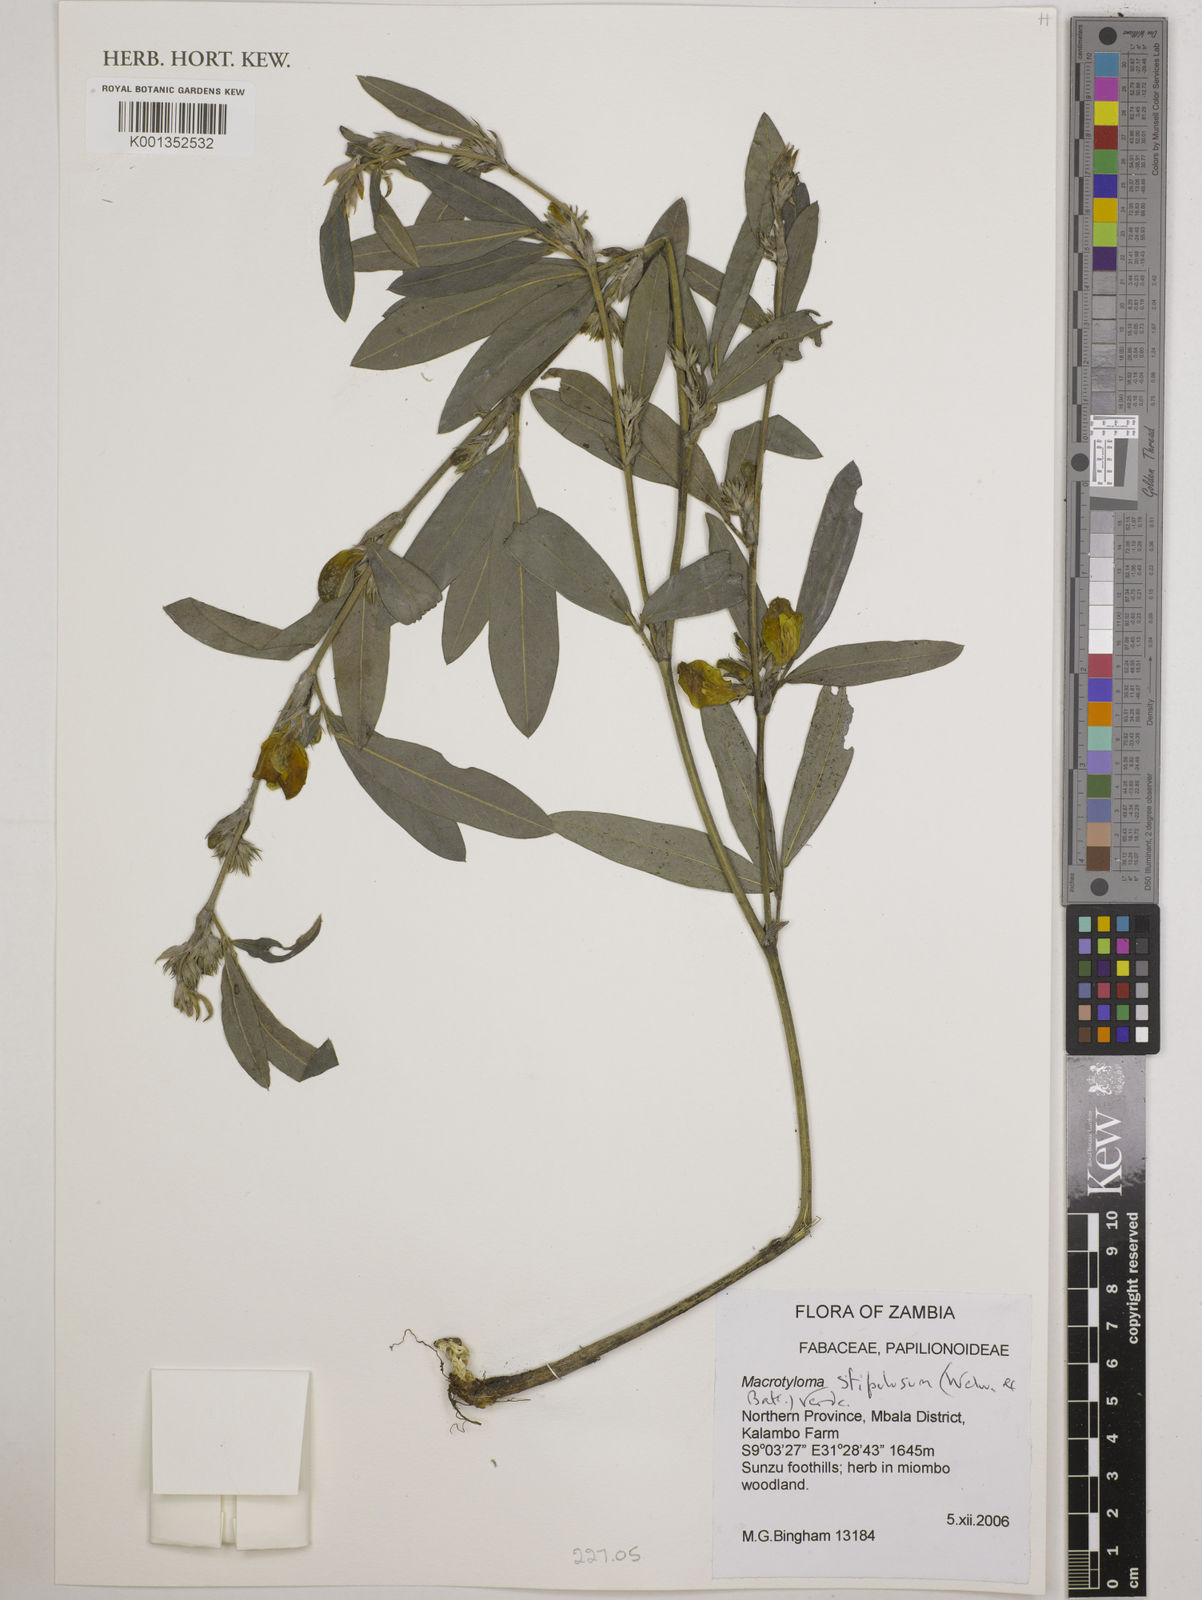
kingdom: Plantae
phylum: Tracheophyta
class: Magnoliopsida
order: Fabales
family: Fabaceae
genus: Macrotyloma
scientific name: Macrotyloma stipulosum
